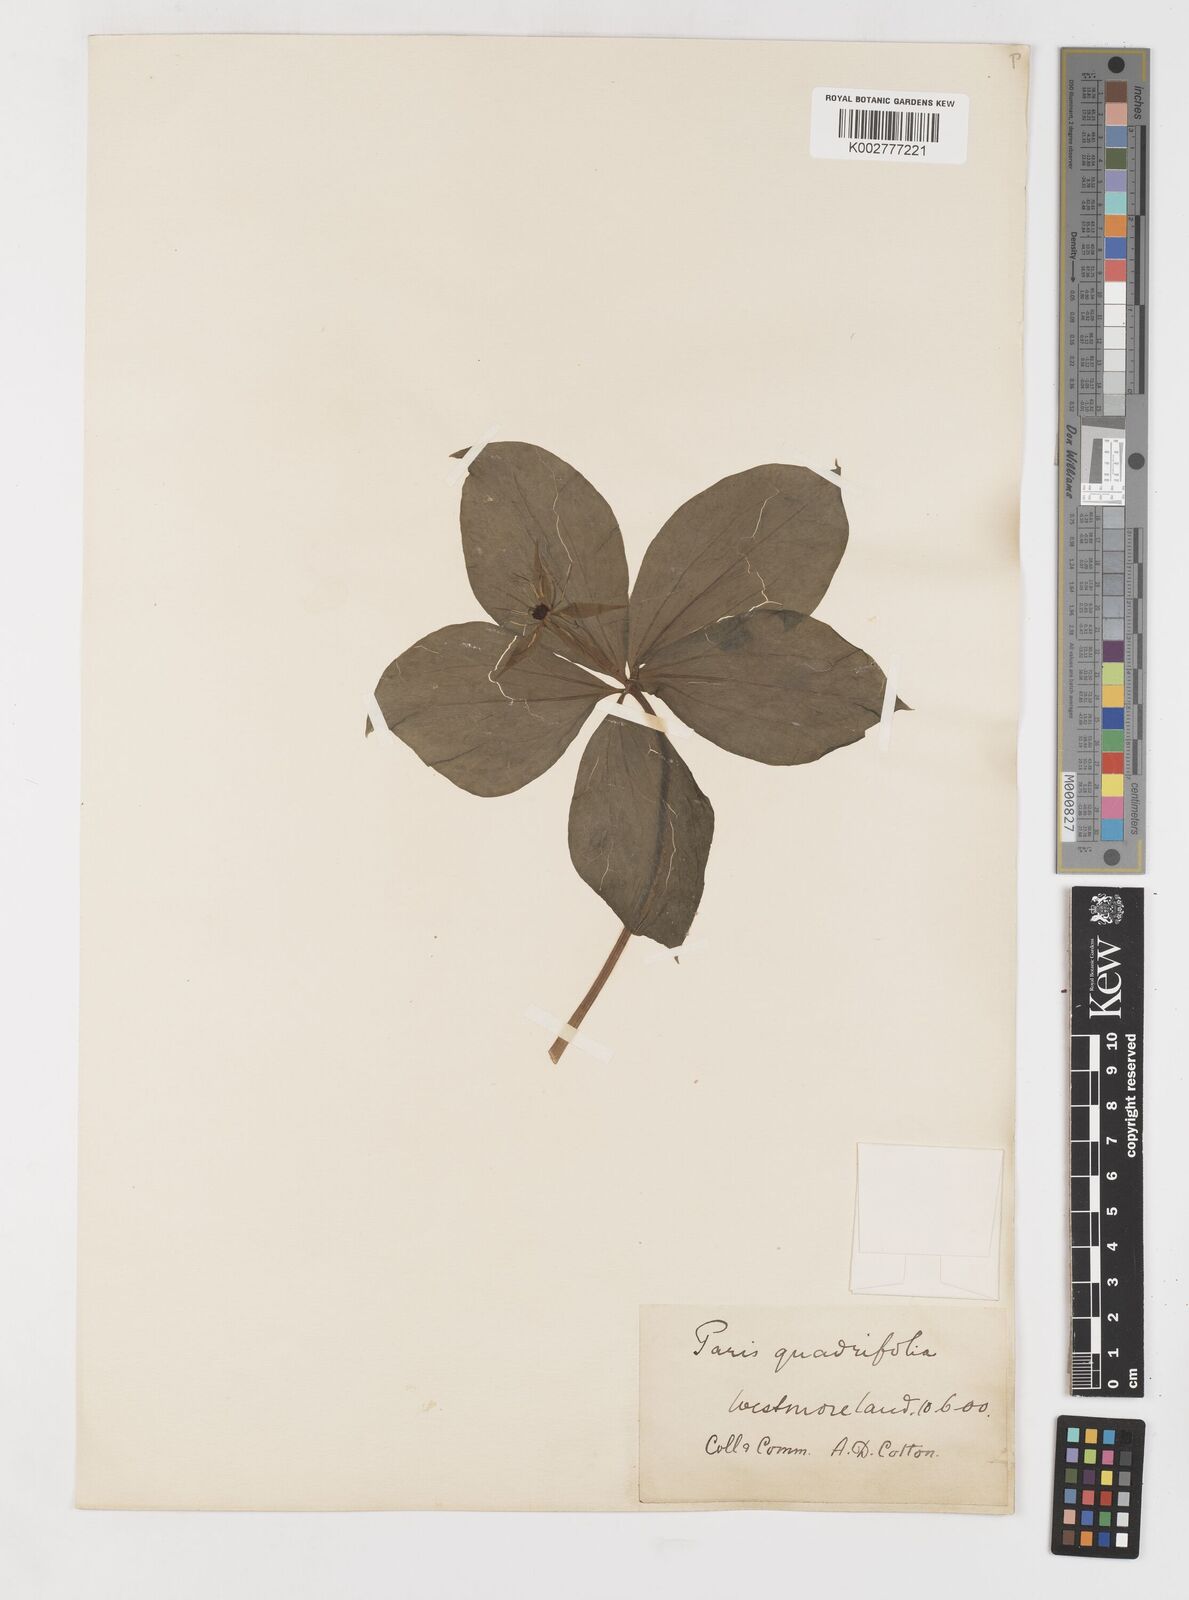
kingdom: Plantae
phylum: Tracheophyta
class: Liliopsida
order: Liliales
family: Melanthiaceae
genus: Paris
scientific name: Paris quadrifolia
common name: Herb-paris
